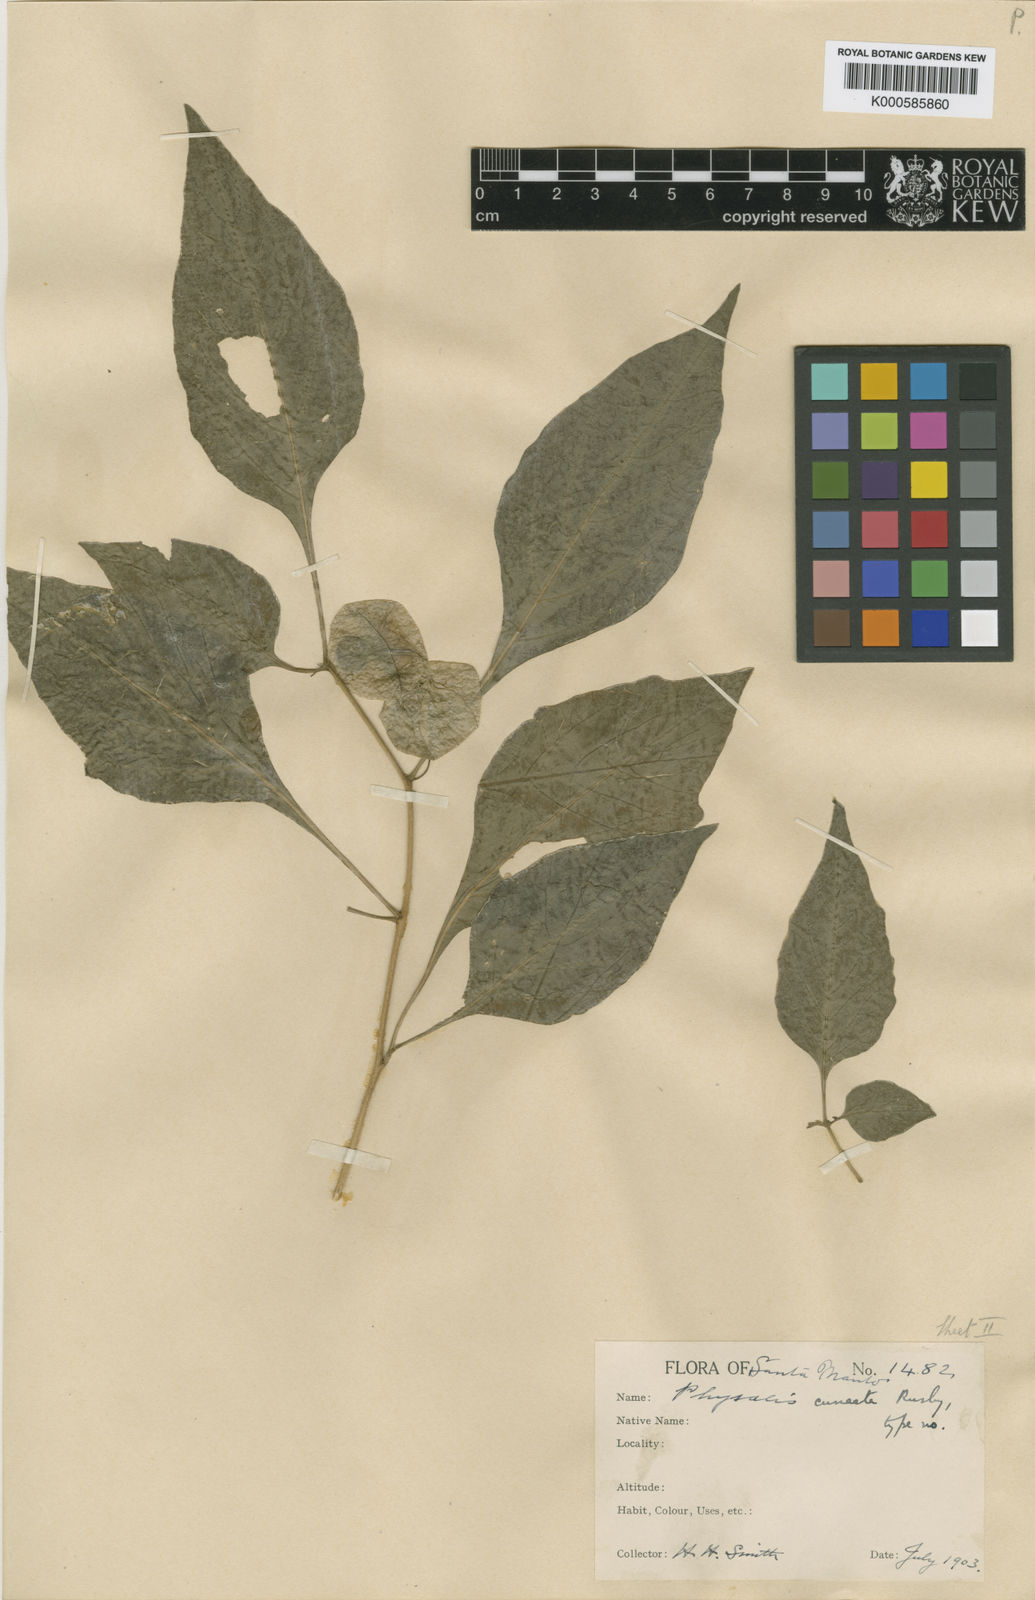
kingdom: Plantae
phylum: Tracheophyta
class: Magnoliopsida
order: Solanales
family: Solanaceae
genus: Physalis
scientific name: Physalis angulata
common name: Angular winter-cherry
